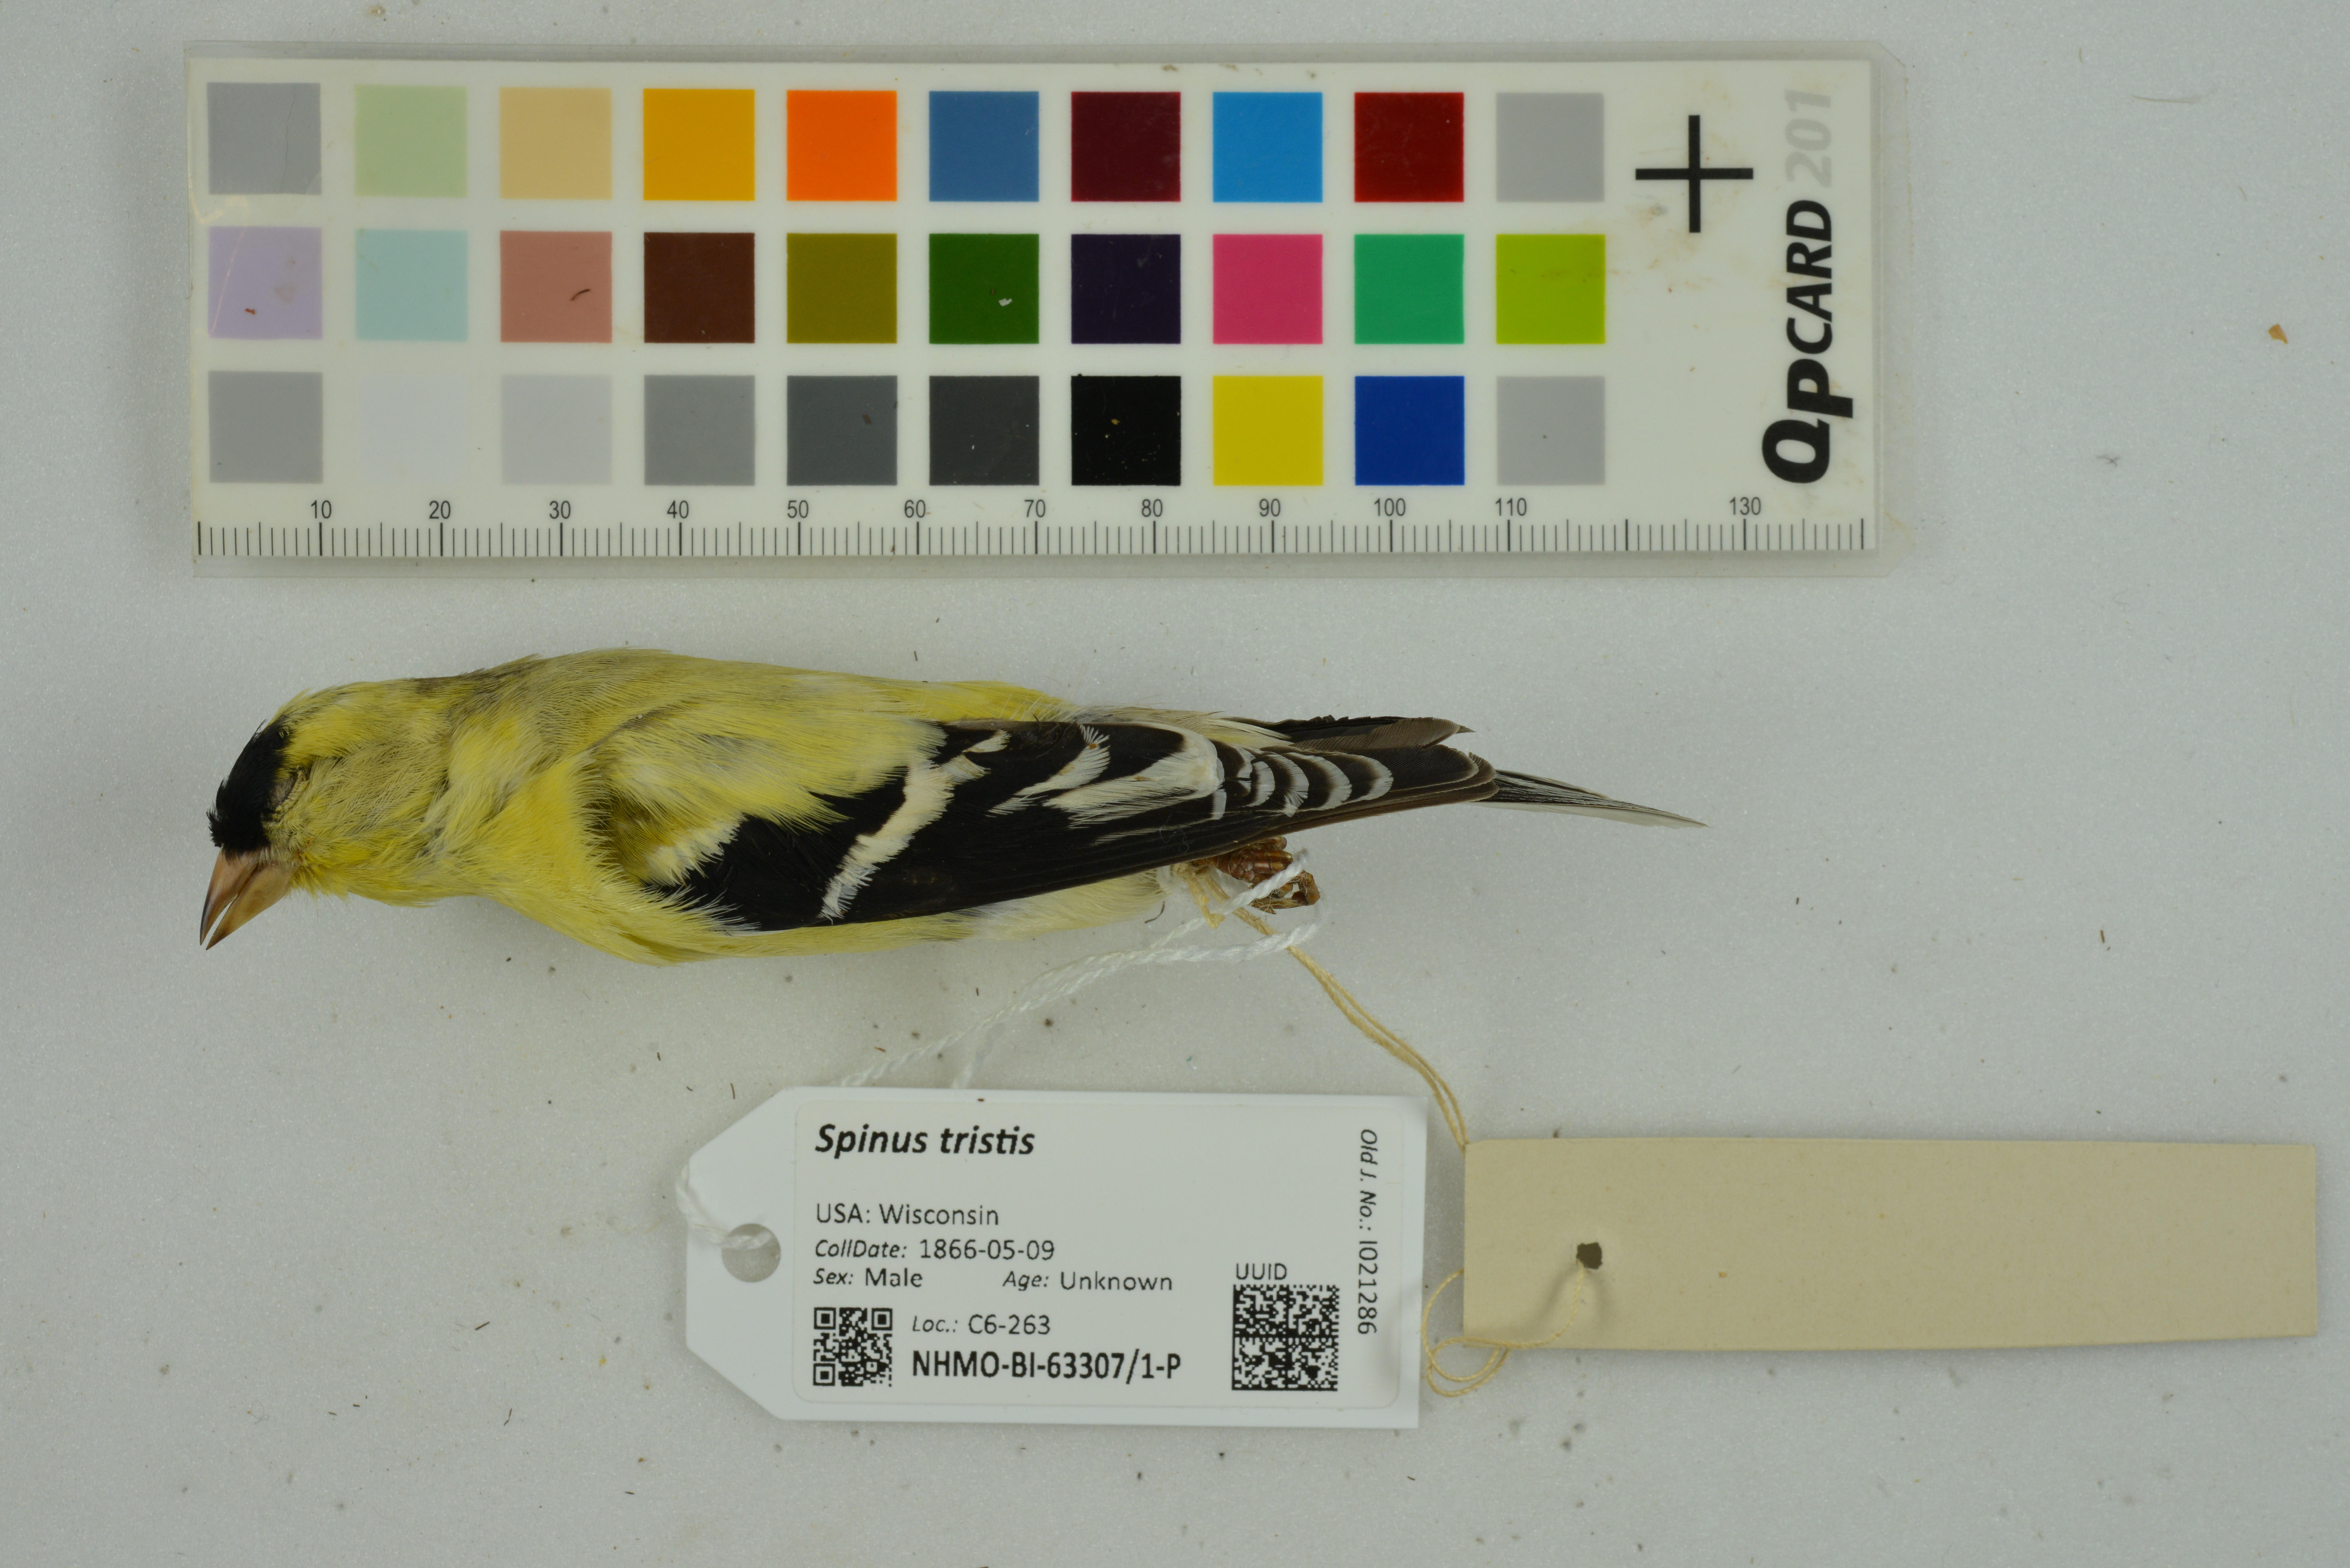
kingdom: Animalia
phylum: Chordata
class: Aves
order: Passeriformes
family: Fringillidae
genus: Spinus
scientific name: Spinus tristis
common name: American goldfinch
